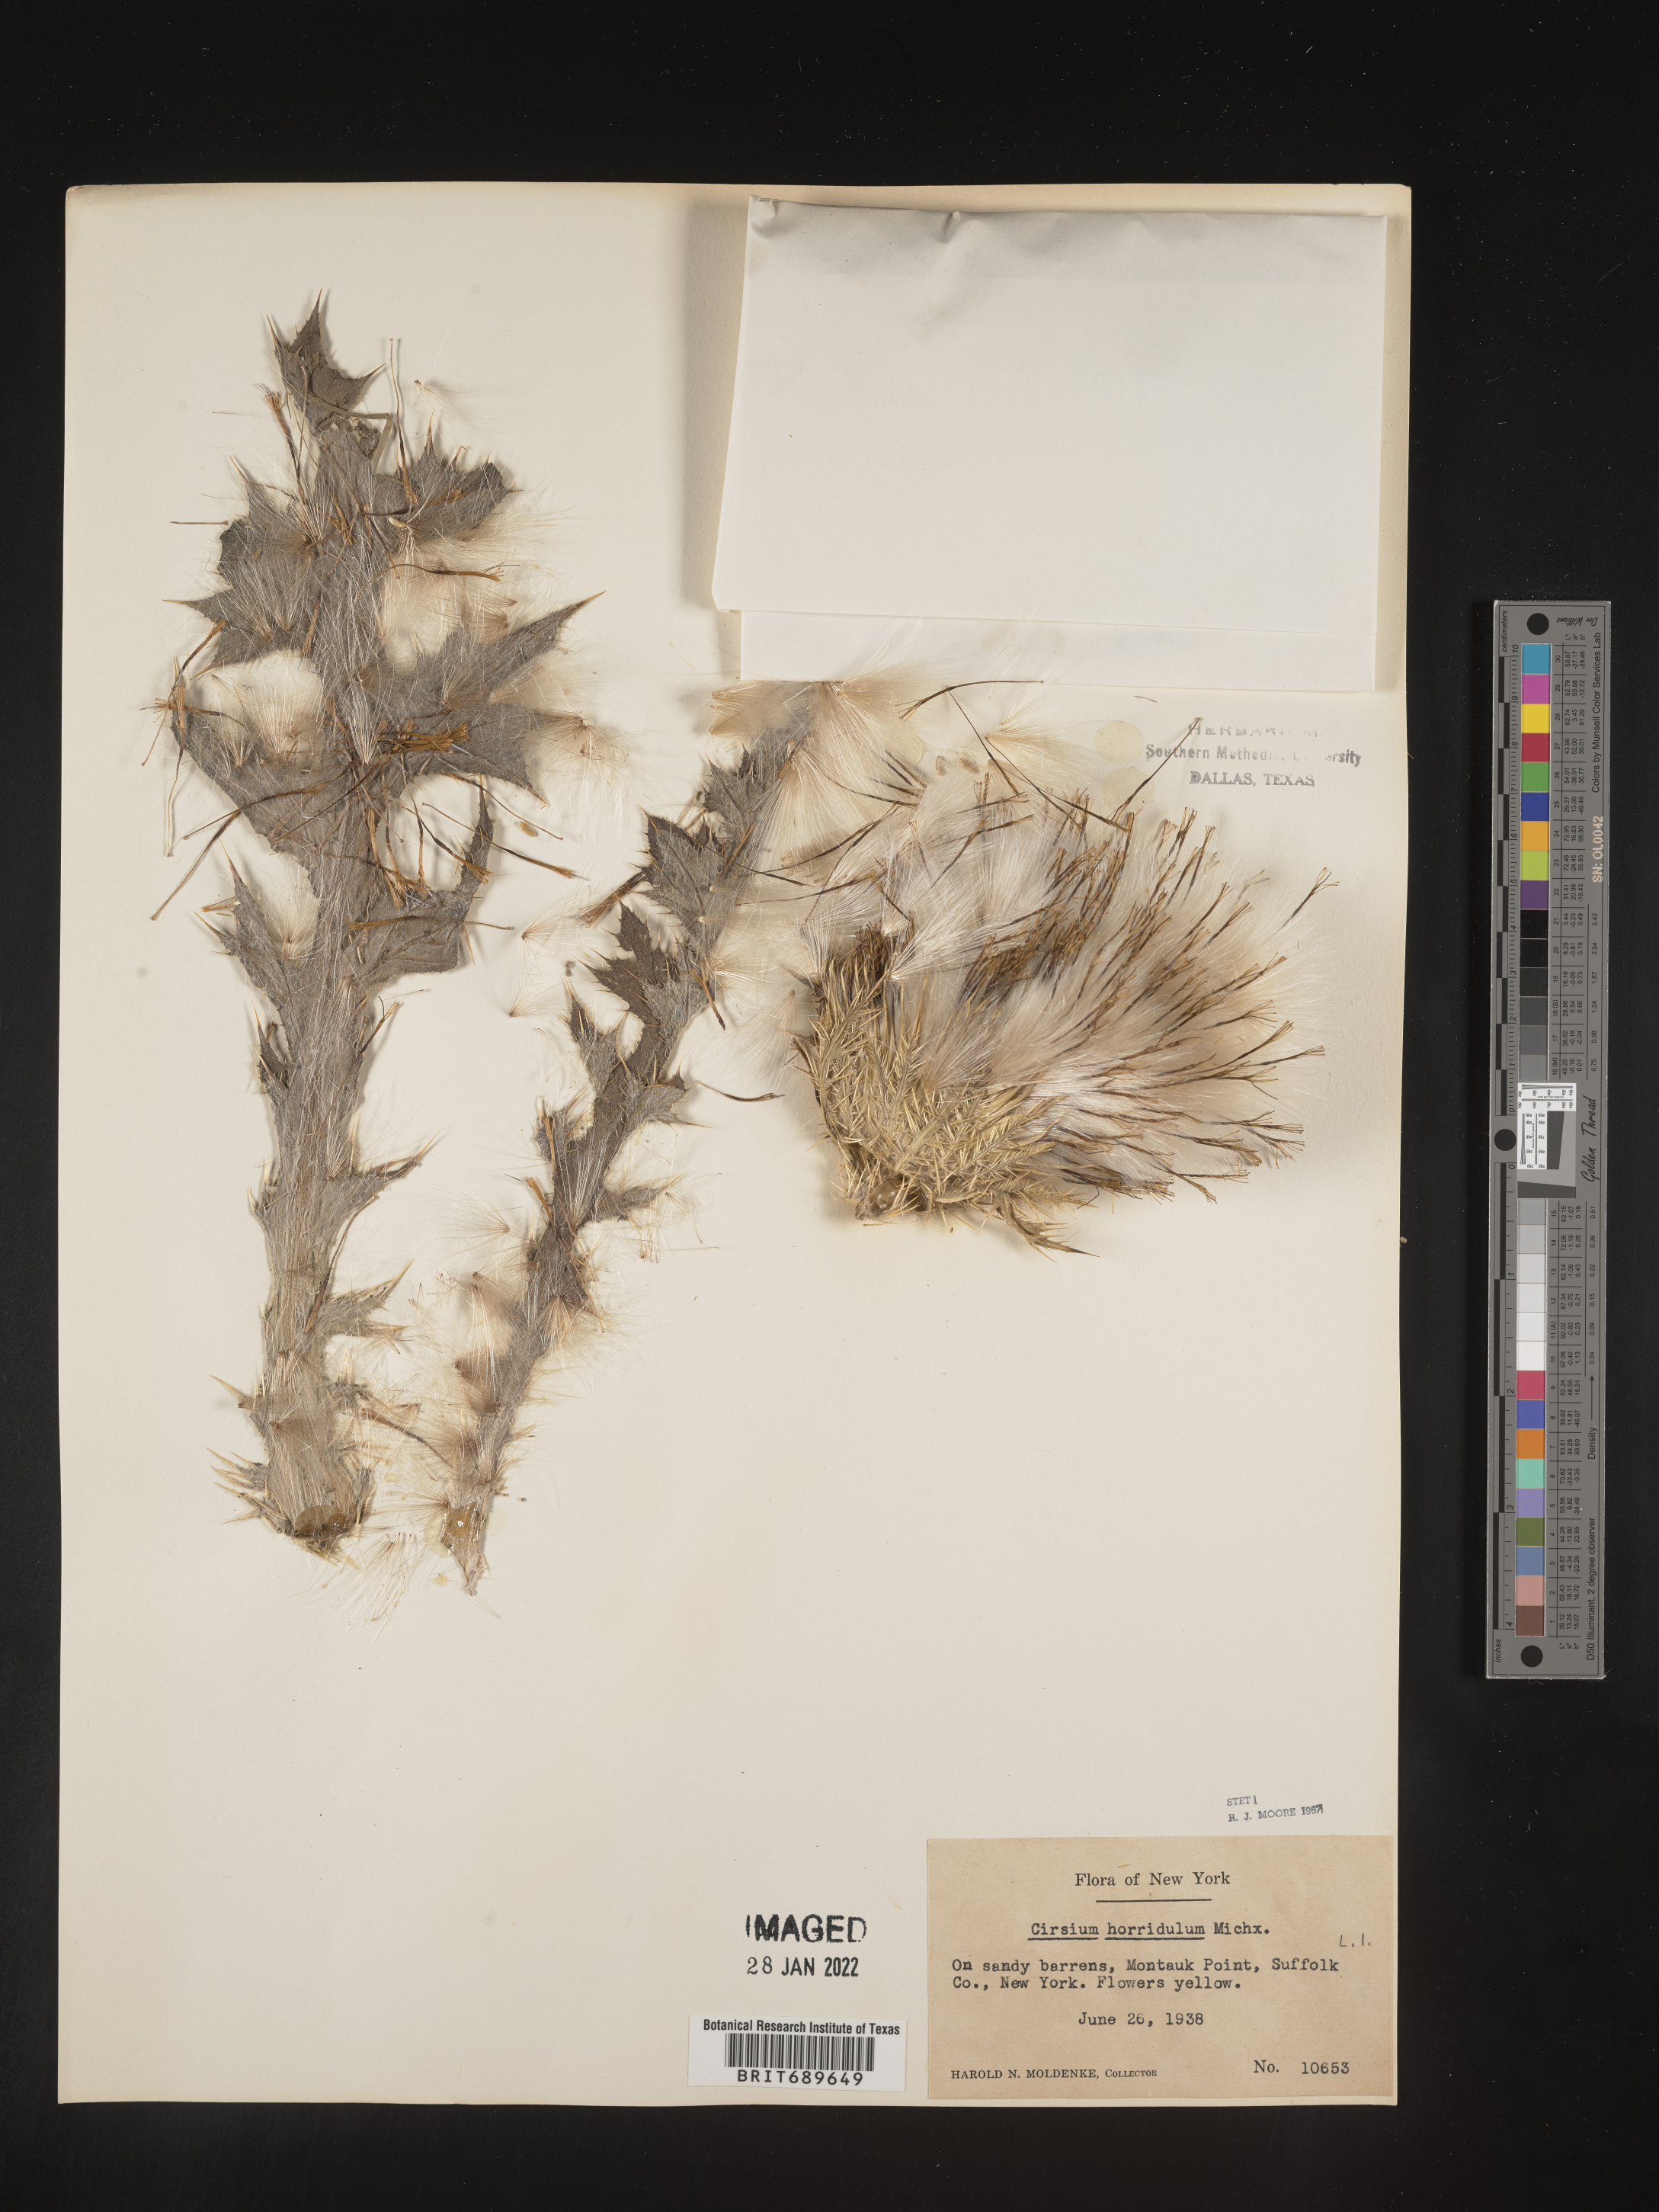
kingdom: Plantae
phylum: Tracheophyta
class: Magnoliopsida
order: Asterales
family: Asteraceae
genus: Cirsium
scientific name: Cirsium horridulum
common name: Bristly thistle
